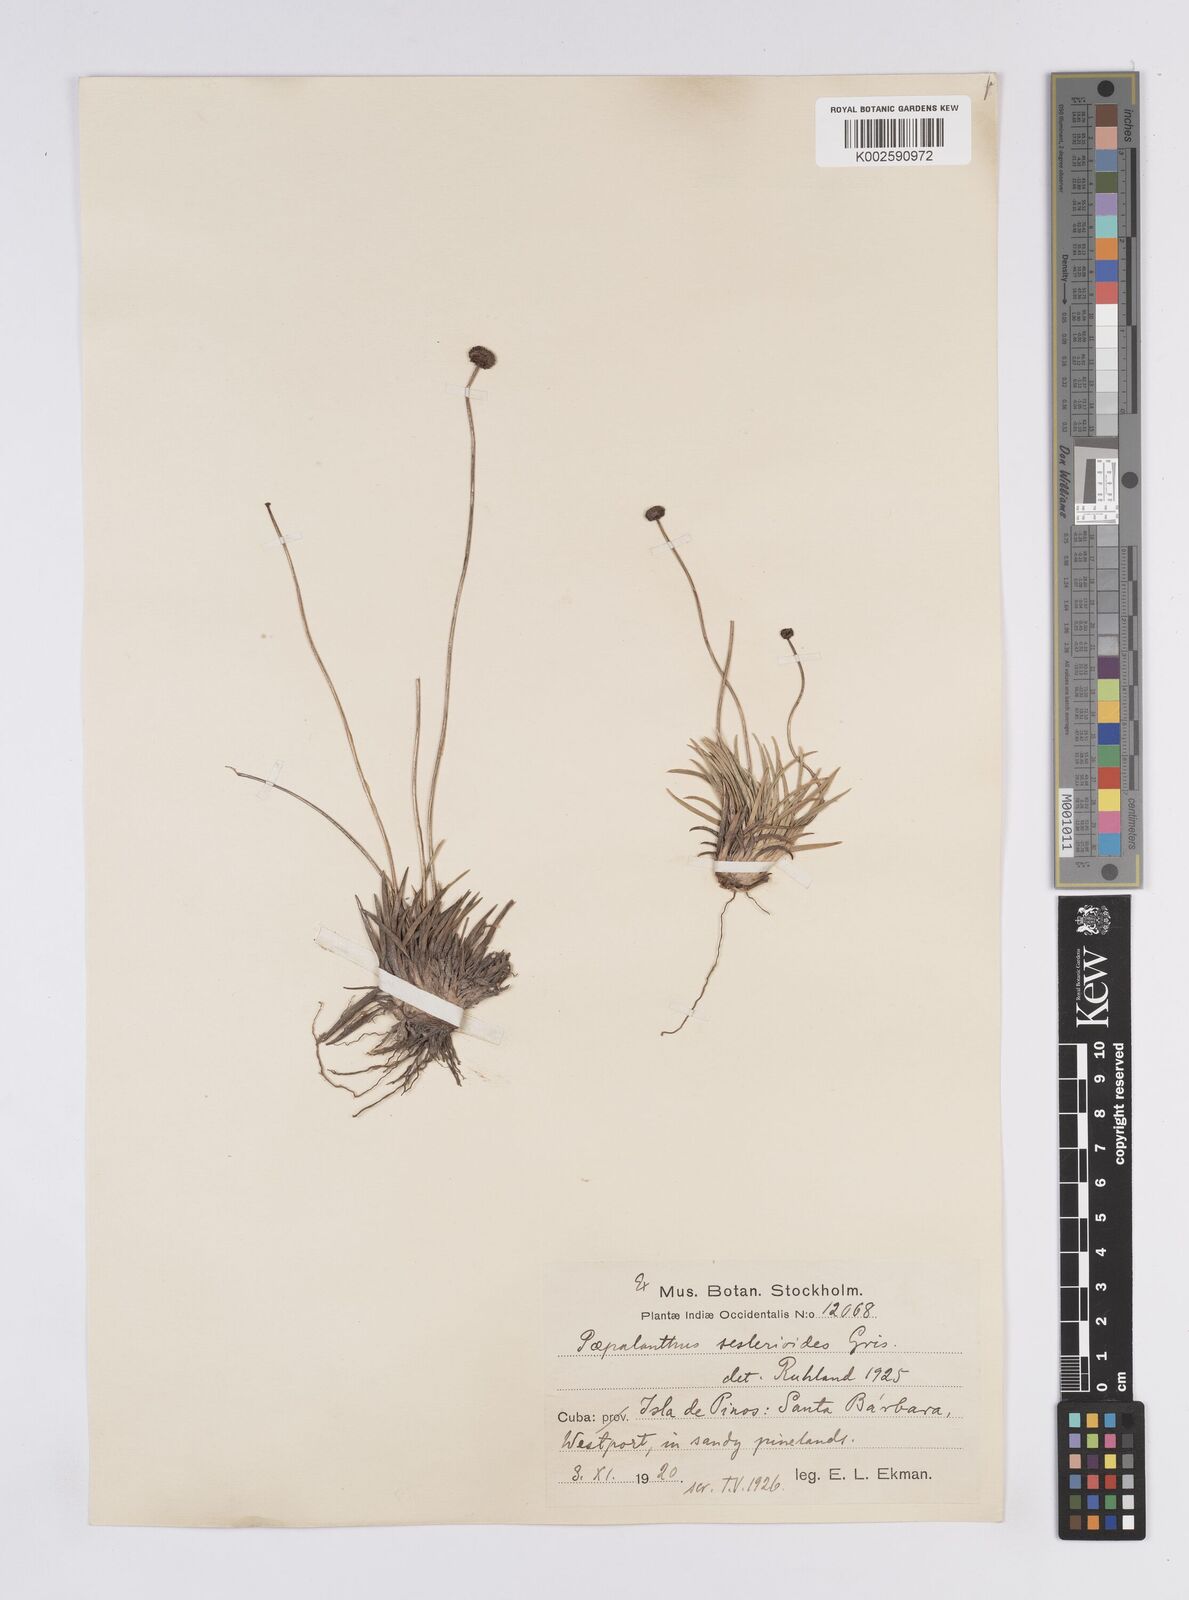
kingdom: Plantae
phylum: Tracheophyta
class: Liliopsida
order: Poales
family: Eriocaulaceae
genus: Paepalanthus
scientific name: Paepalanthus seslerioides
